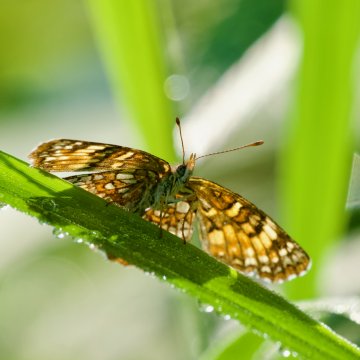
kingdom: Animalia
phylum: Arthropoda
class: Insecta
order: Lepidoptera
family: Nymphalidae
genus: Phyciodes
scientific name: Phyciodes
